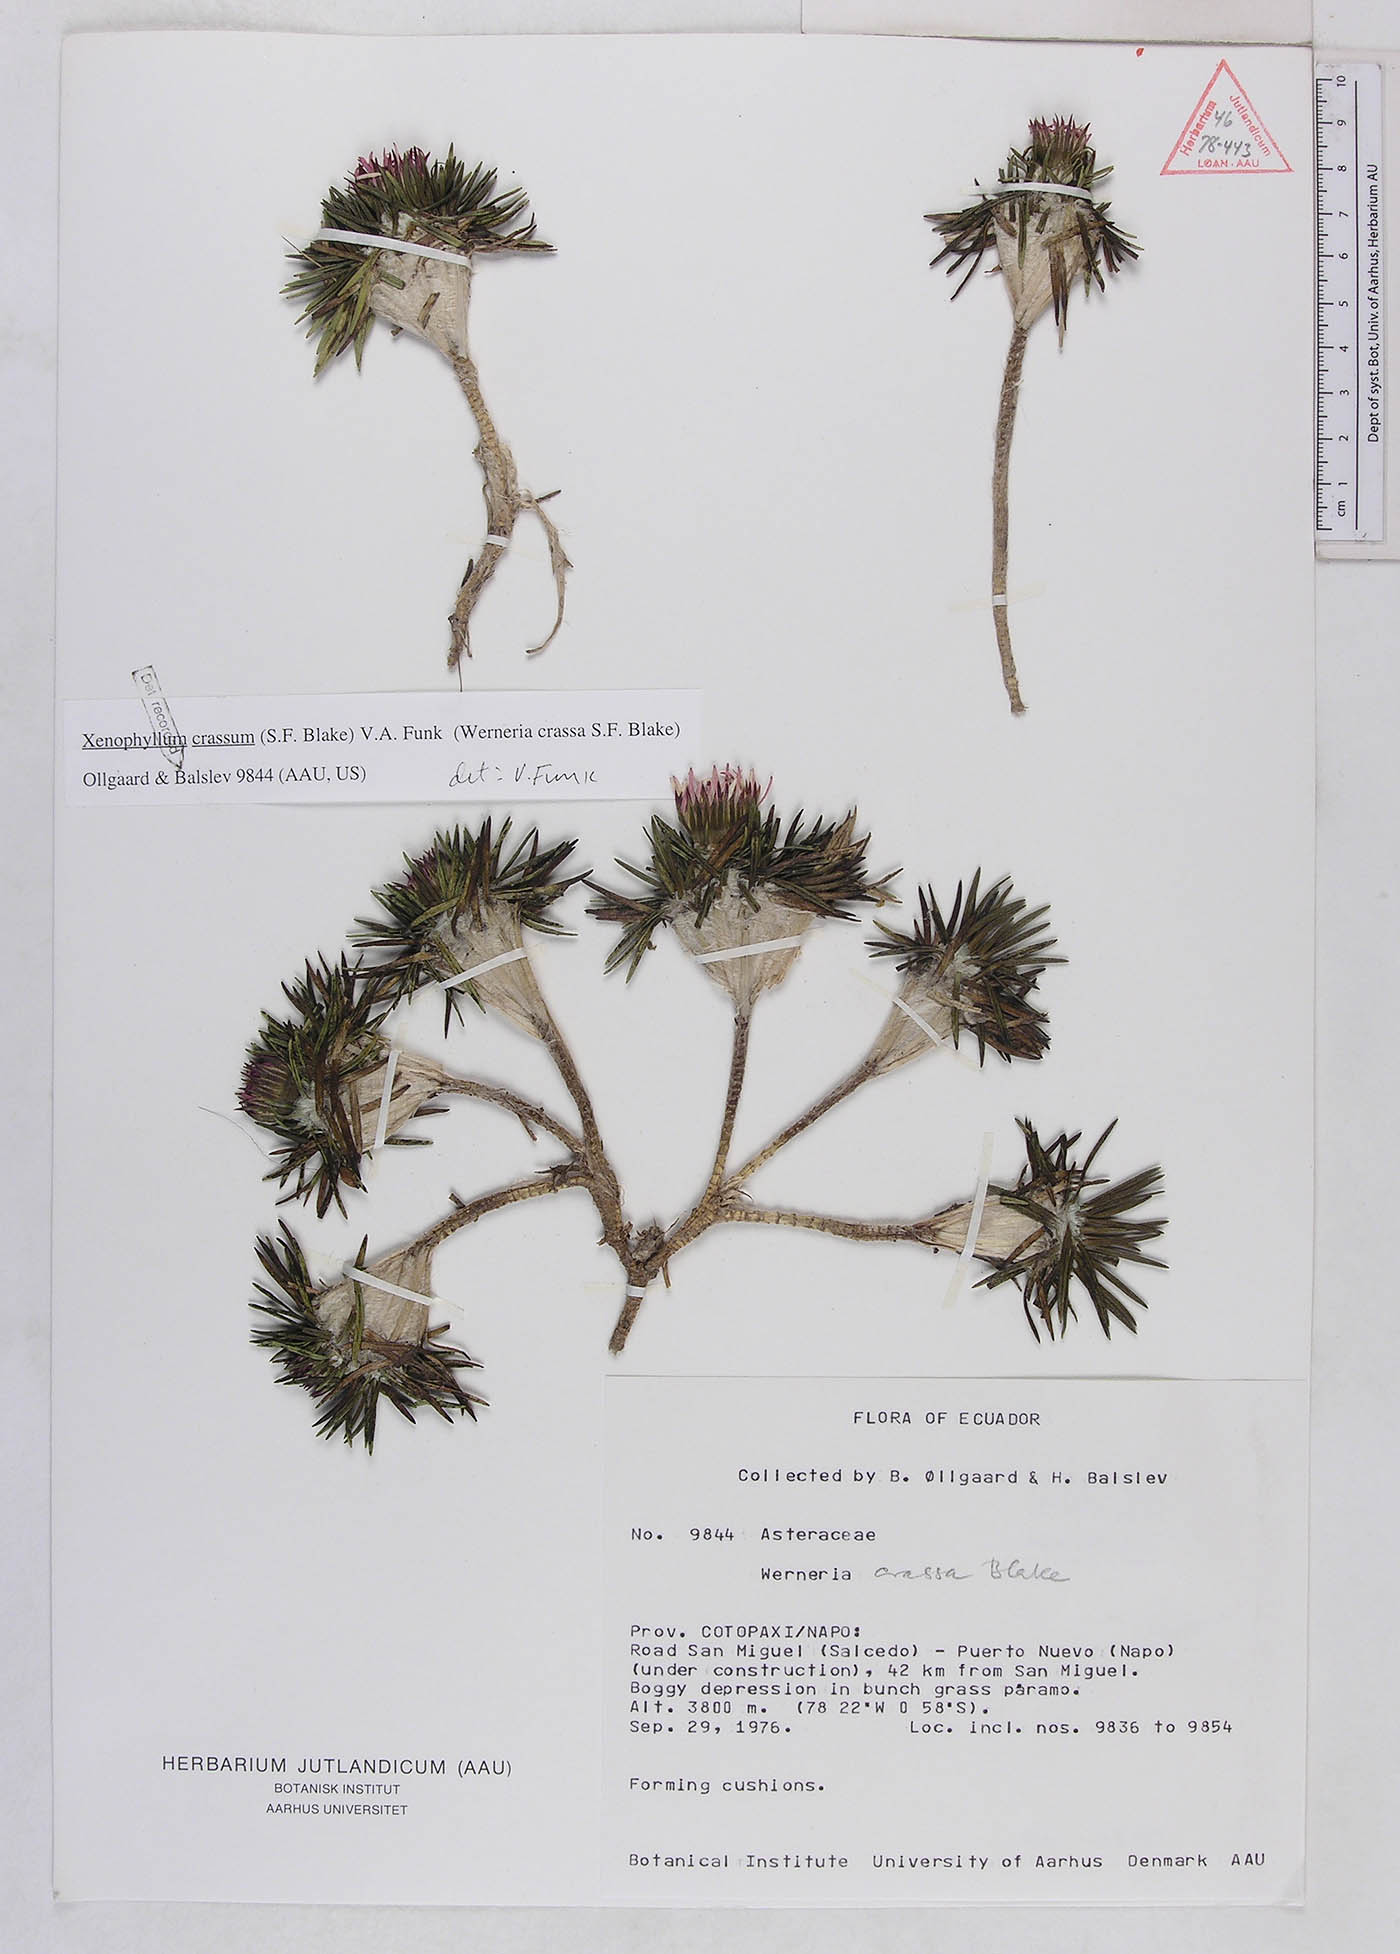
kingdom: Plantae
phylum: Tracheophyta
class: Magnoliopsida
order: Asterales
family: Asteraceae
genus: Werneria
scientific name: Werneria crassa
